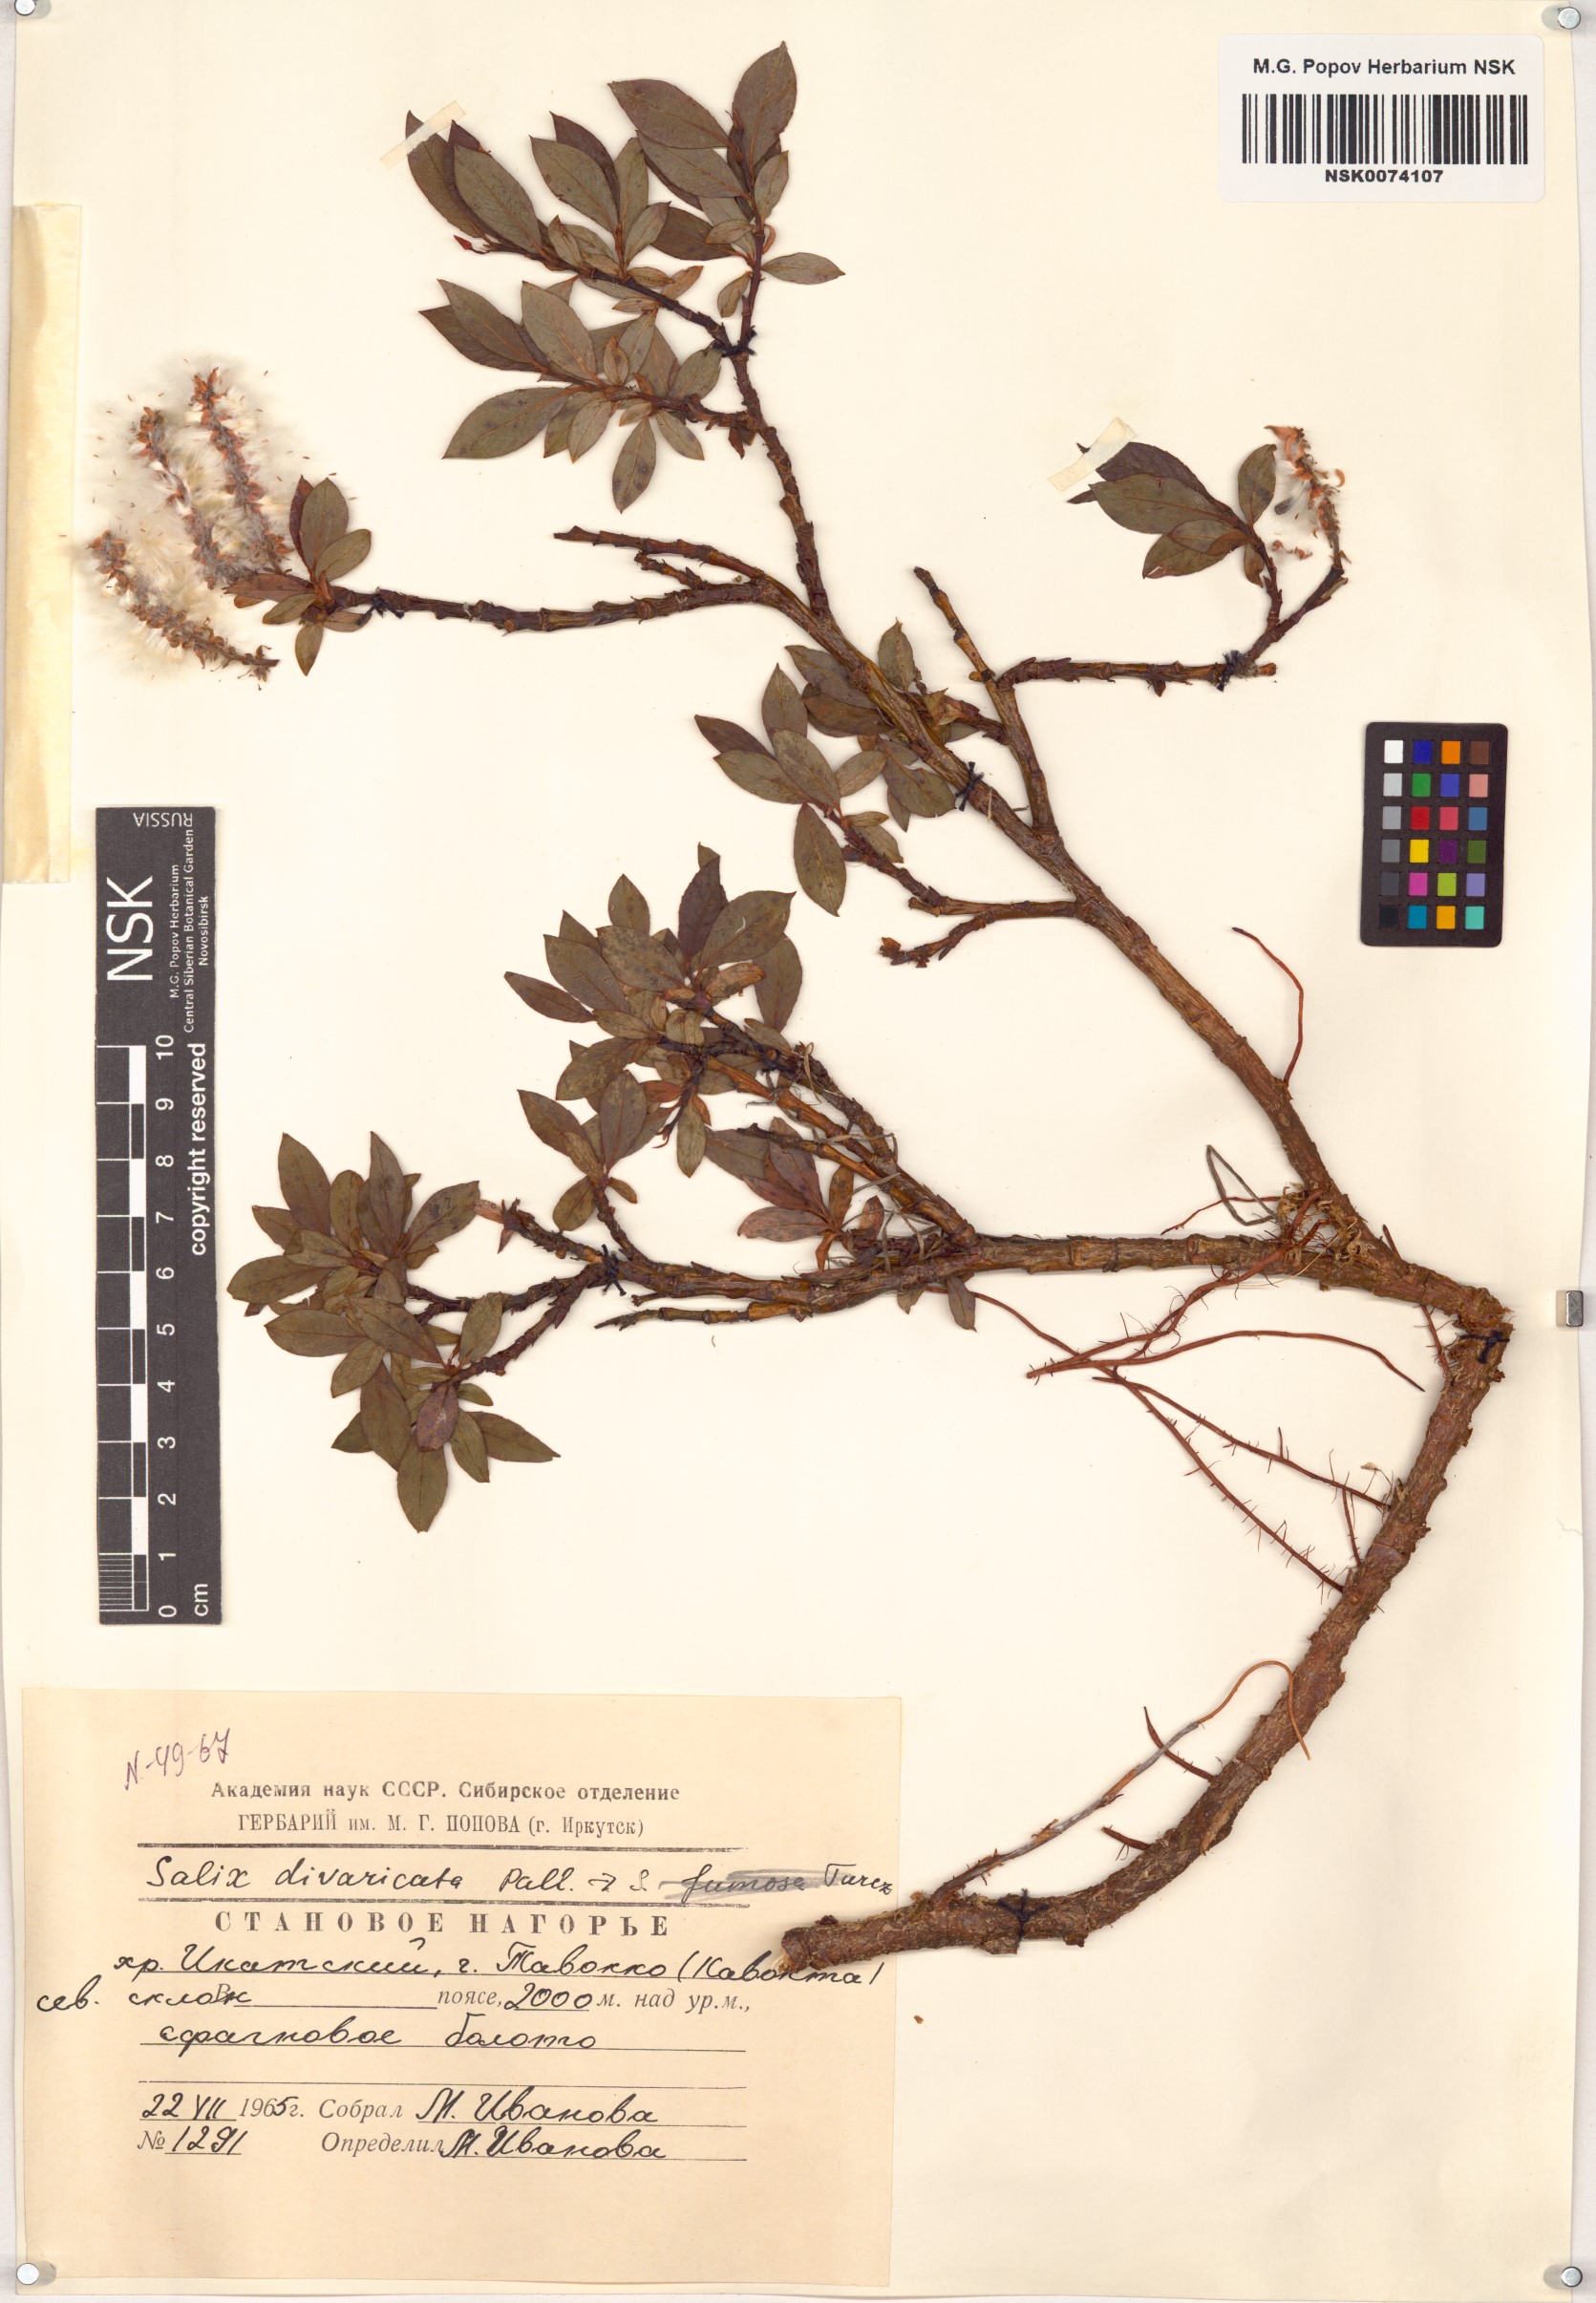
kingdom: Plantae
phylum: Tracheophyta
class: Magnoliopsida
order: Malpighiales
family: Salicaceae
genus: Salix
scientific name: Salix divaricata
